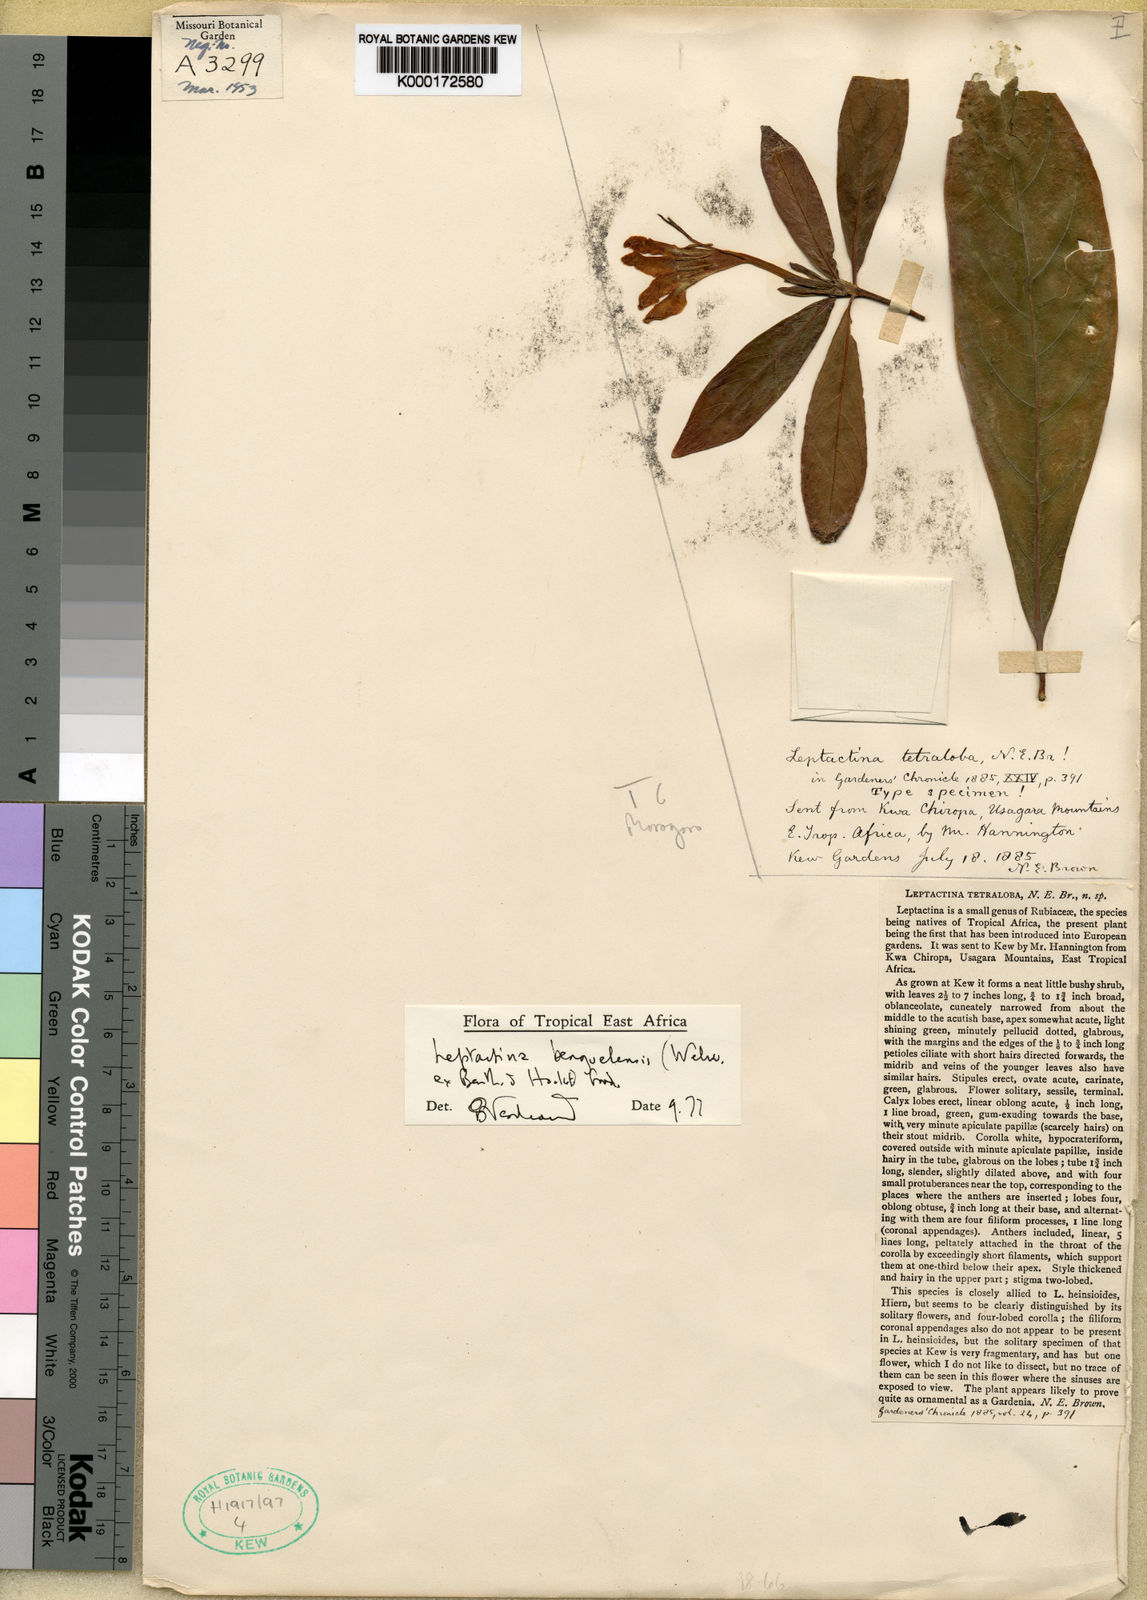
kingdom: Plantae
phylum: Tracheophyta
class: Magnoliopsida
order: Gentianales
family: Rubiaceae
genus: Leptactina
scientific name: Leptactina
